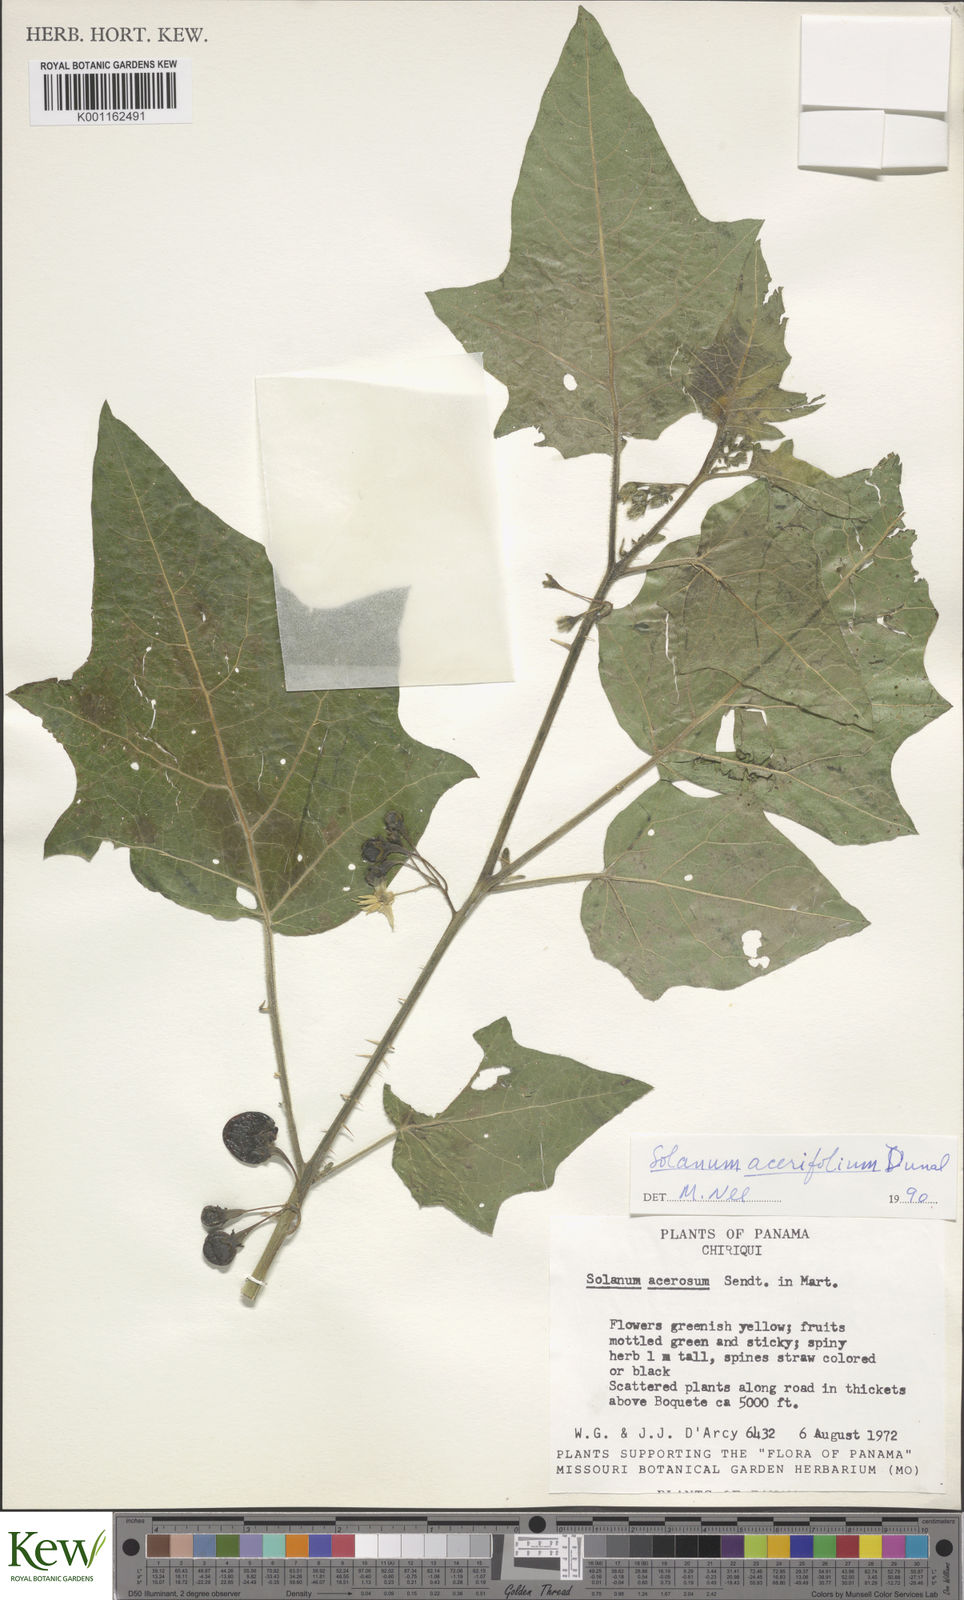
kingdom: Plantae
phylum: Tracheophyta
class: Magnoliopsida
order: Solanales
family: Solanaceae
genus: Solanum
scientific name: Solanum acerifolium
